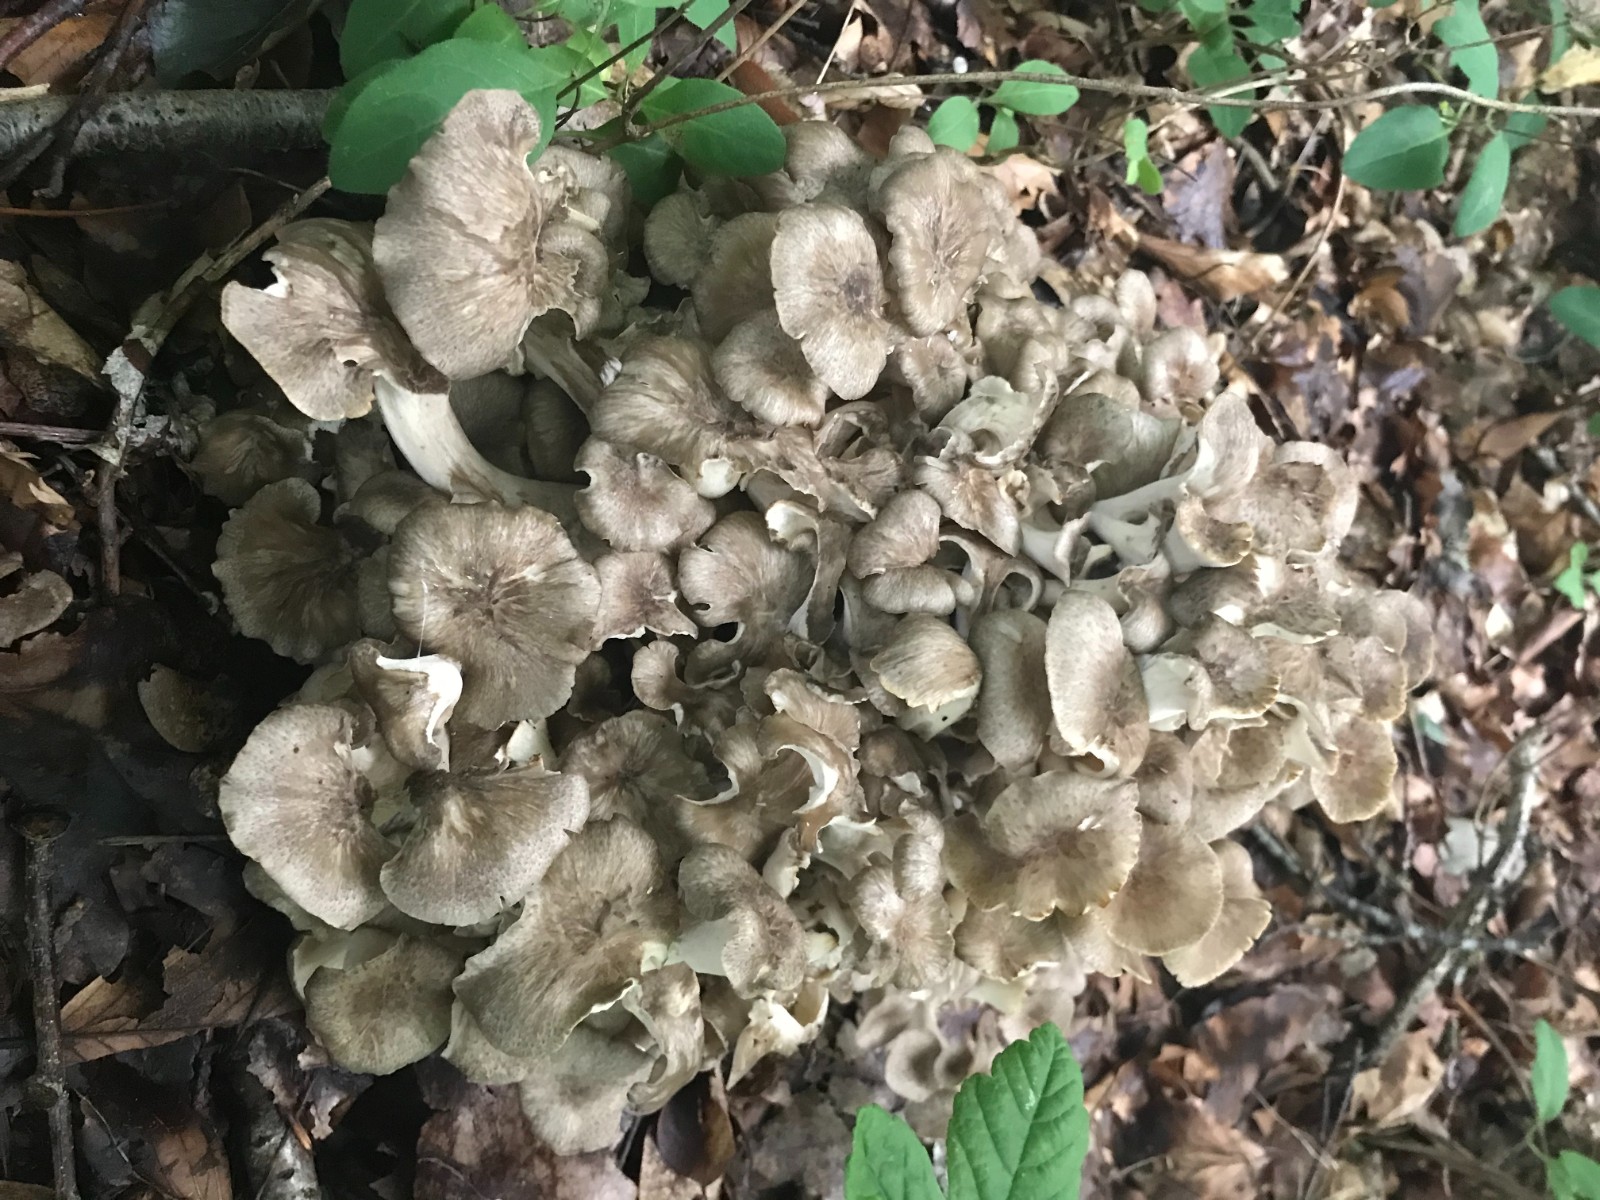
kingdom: Fungi
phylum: Basidiomycota
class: Agaricomycetes
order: Polyporales
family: Polyporaceae
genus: Polyporus
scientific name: Polyporus umbellatus
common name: skærmformet stilkporesvamp
